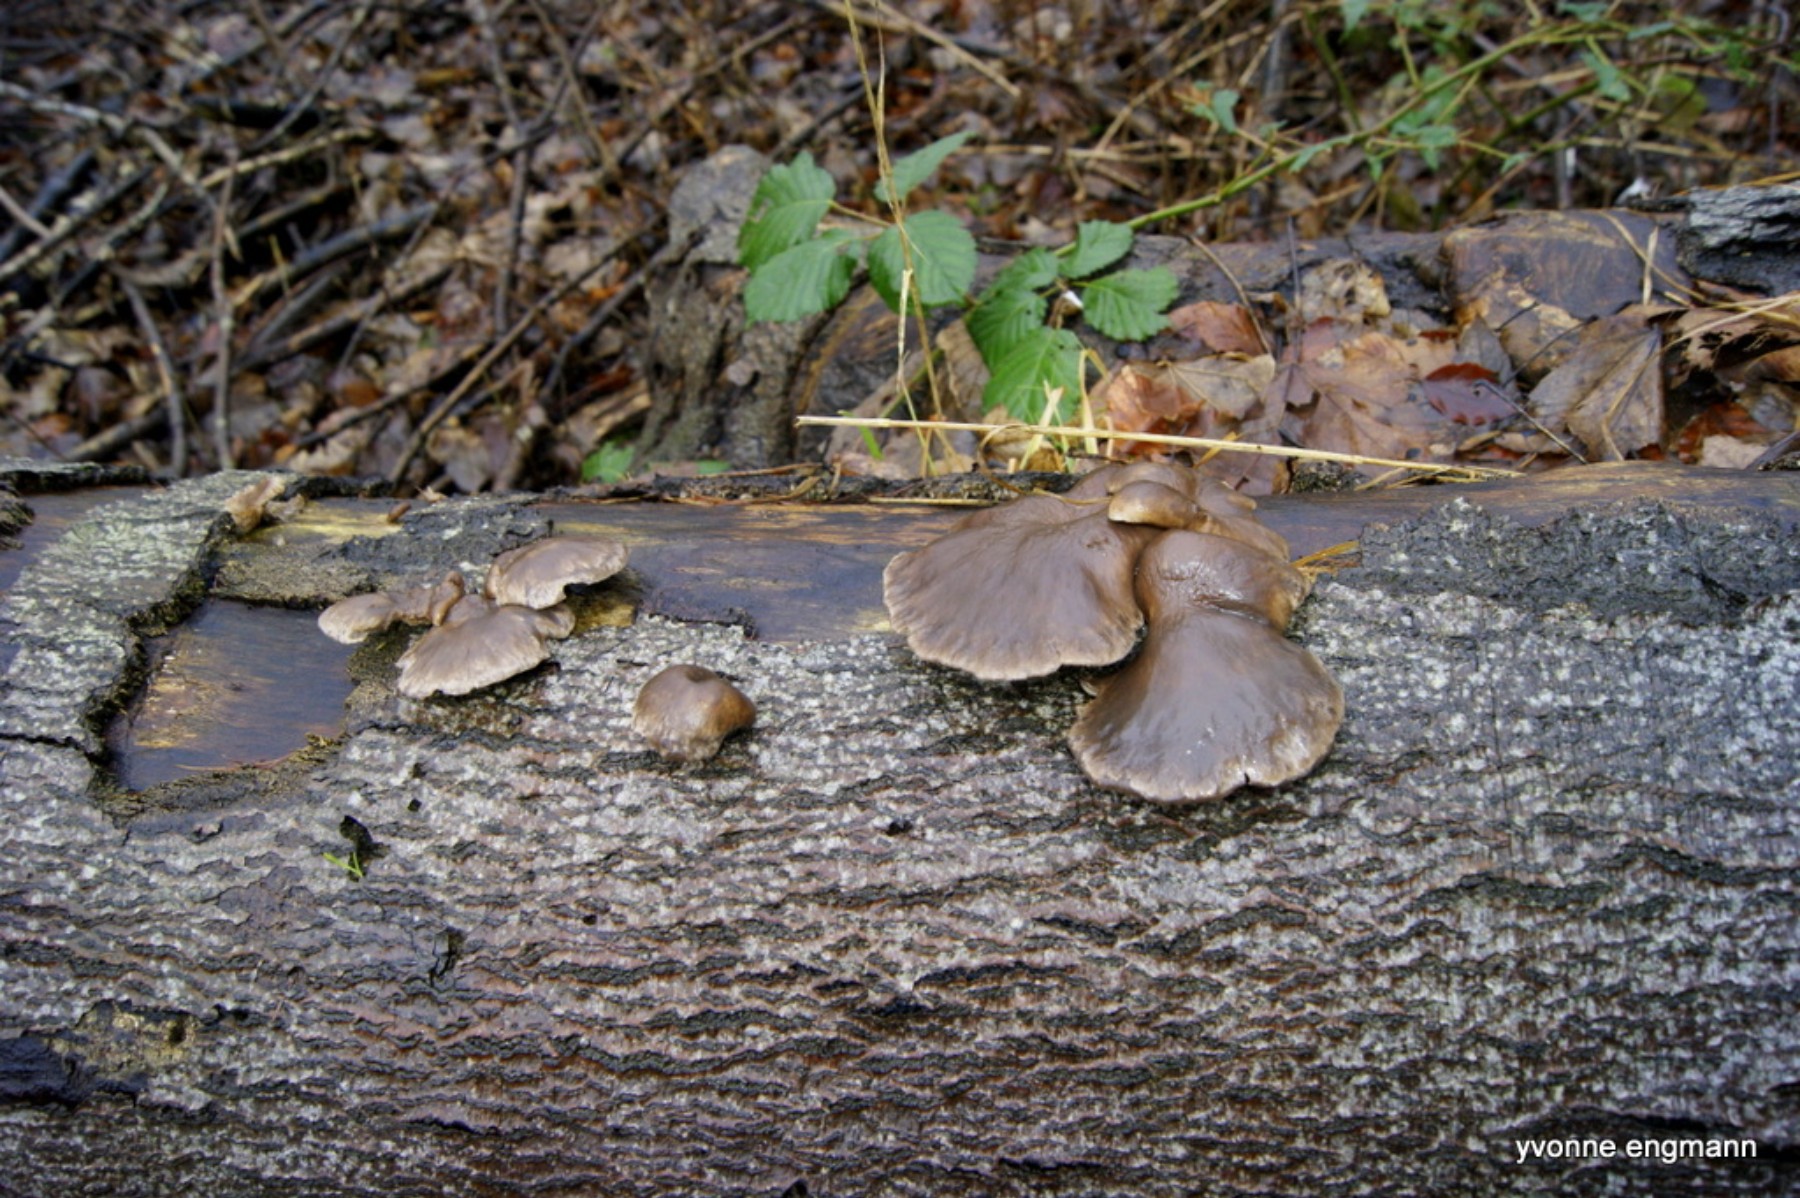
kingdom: Fungi
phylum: Basidiomycota
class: Agaricomycetes
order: Agaricales
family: Pleurotaceae
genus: Pleurotus
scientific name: Pleurotus ostreatus
